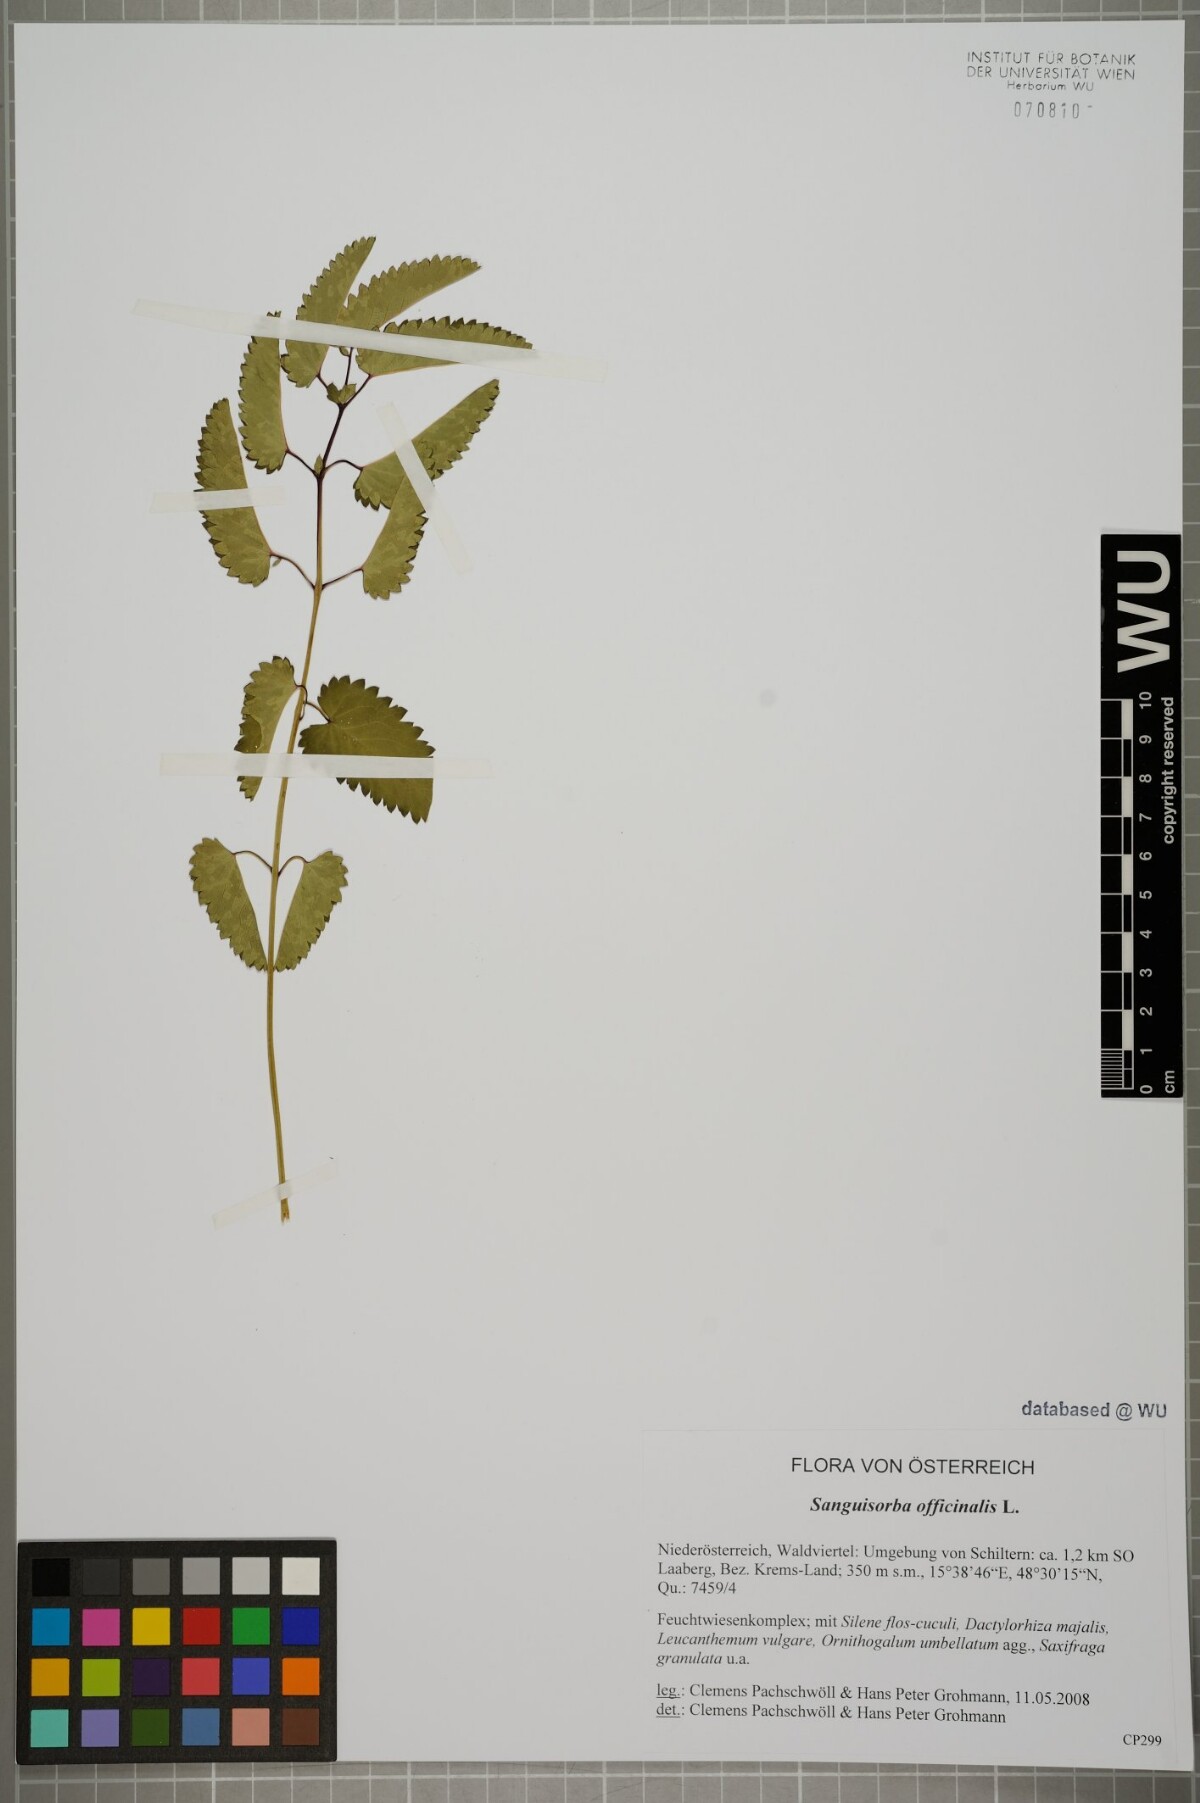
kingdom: Plantae
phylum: Tracheophyta
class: Magnoliopsida
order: Rosales
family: Rosaceae
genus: Sanguisorba
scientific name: Sanguisorba officinalis
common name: Great burnet
